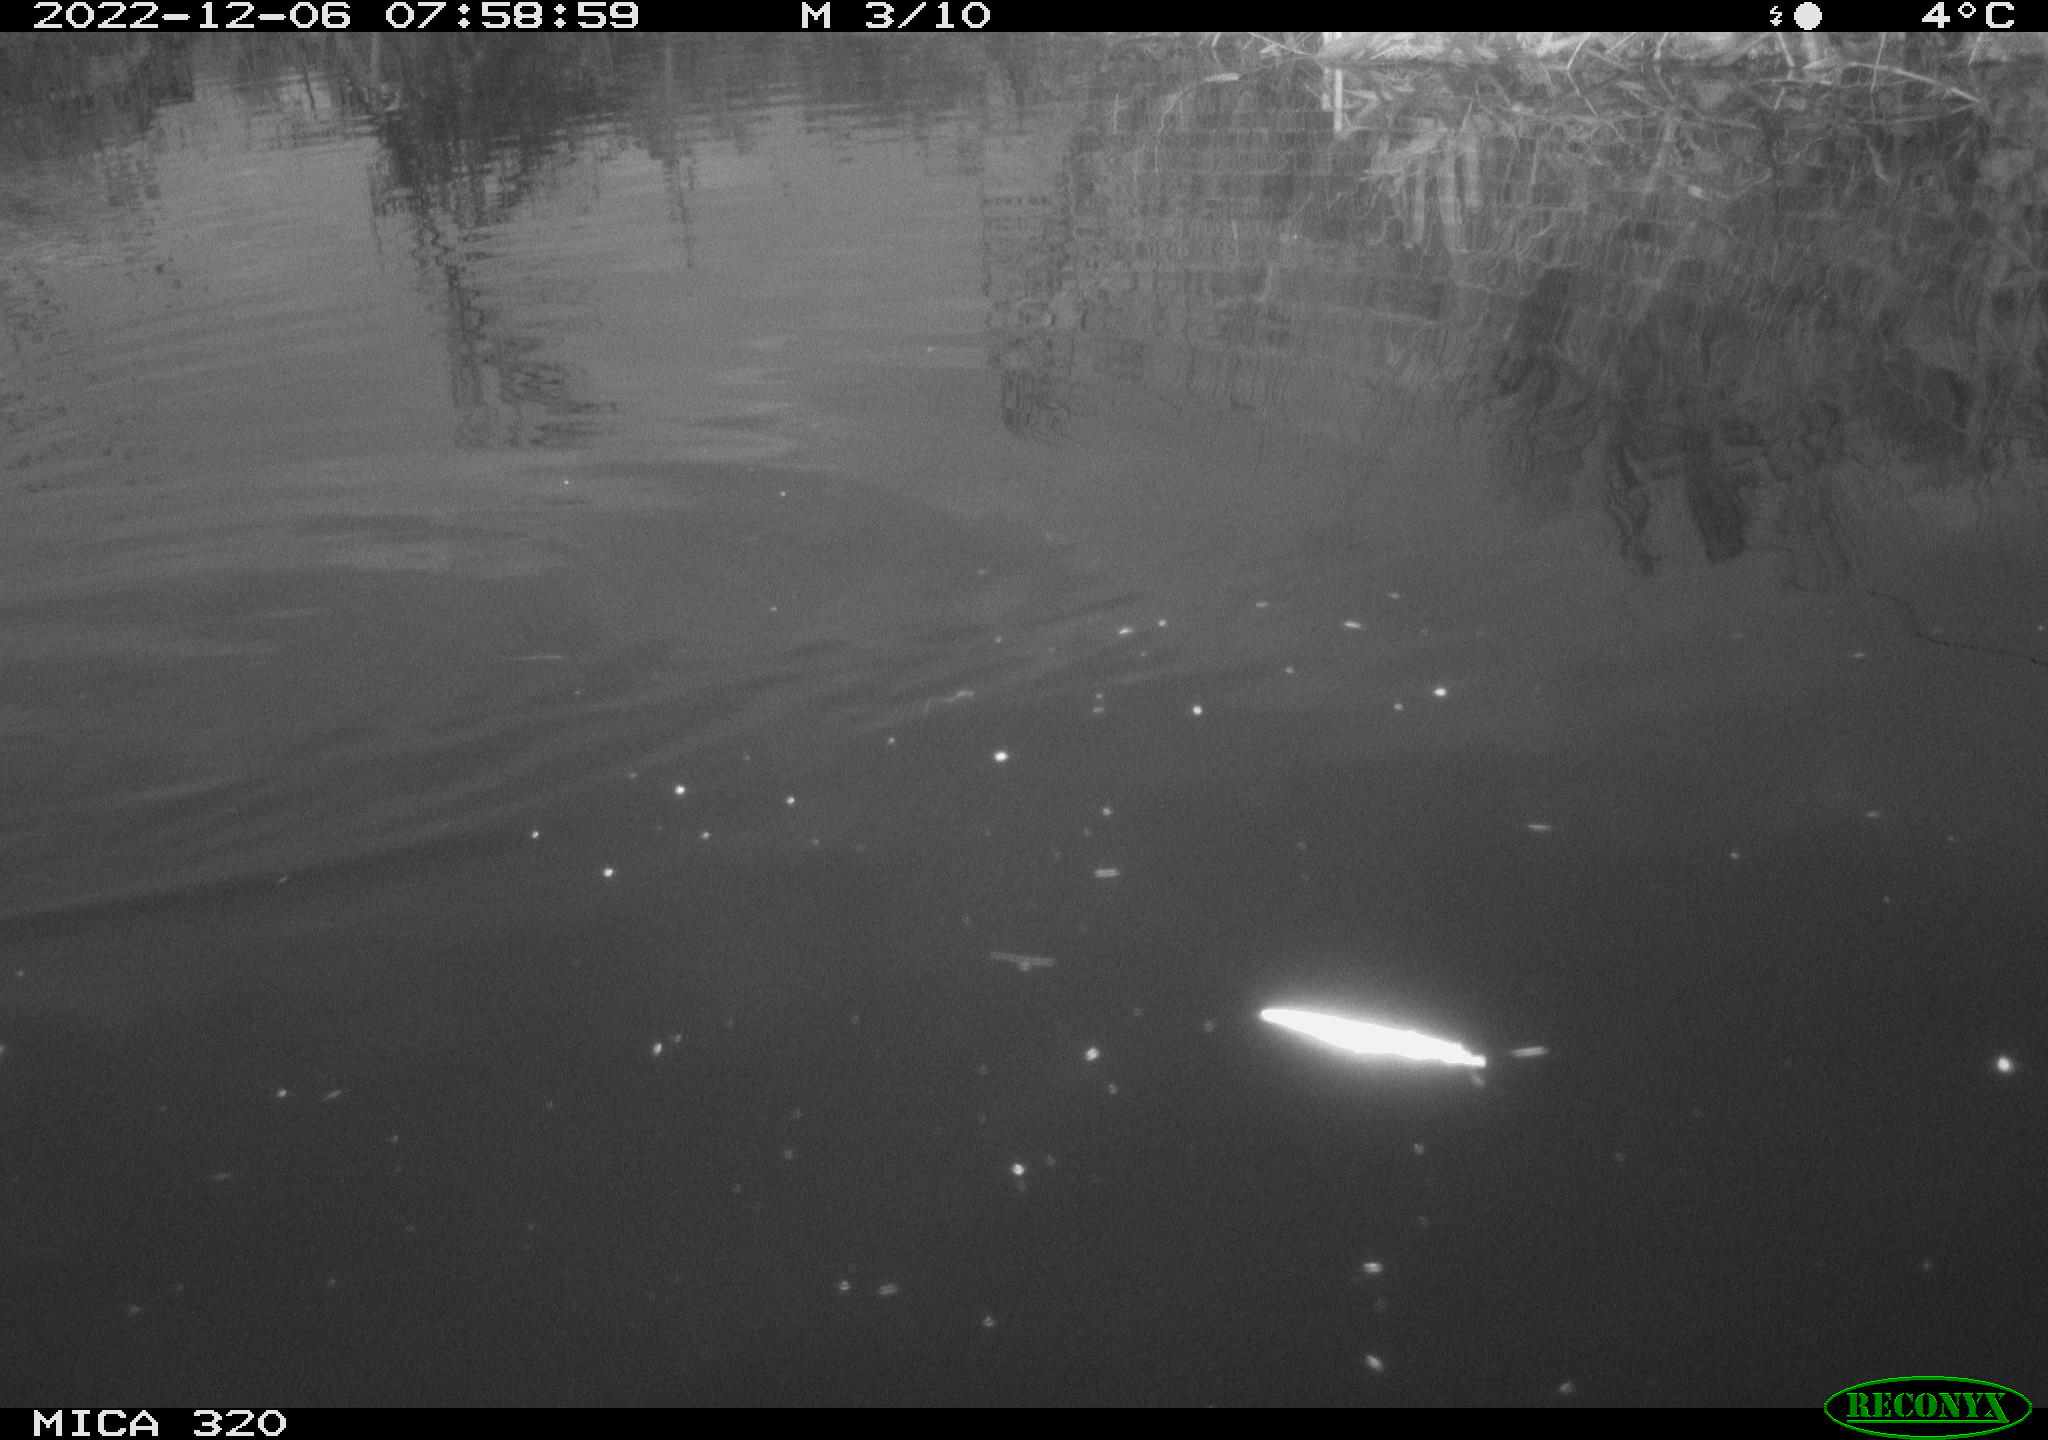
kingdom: Animalia
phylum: Chordata
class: Aves
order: Gruiformes
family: Rallidae
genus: Gallinula
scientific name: Gallinula chloropus
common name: Common moorhen
